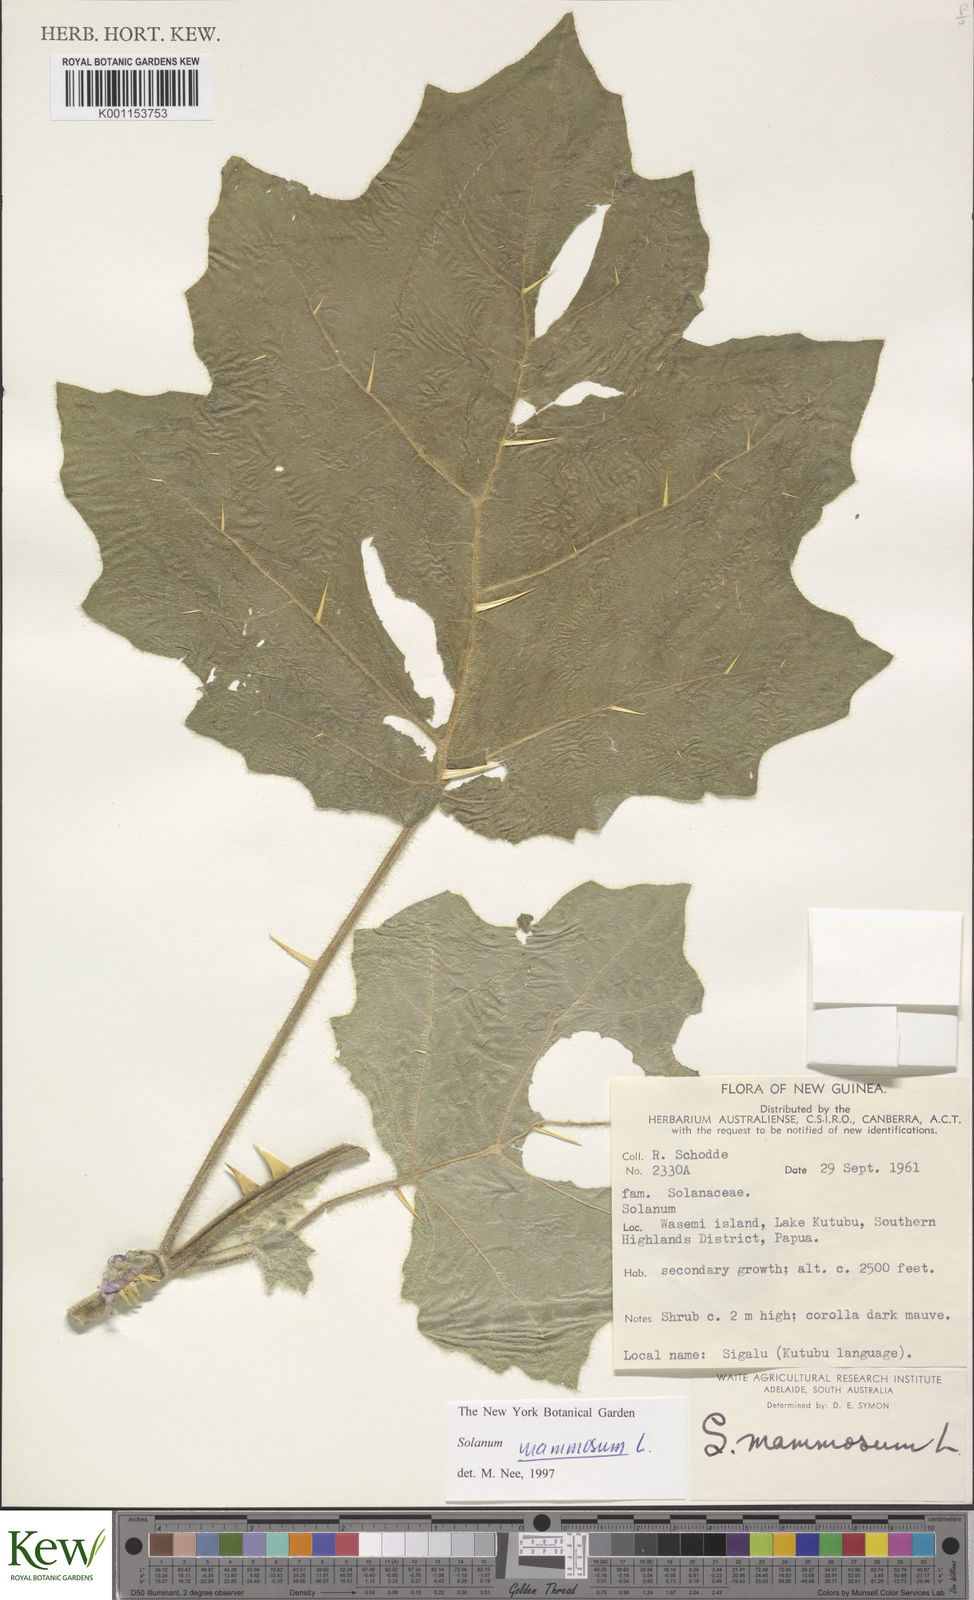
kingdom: Plantae
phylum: Tracheophyta
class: Magnoliopsida
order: Solanales
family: Solanaceae
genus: Solanum
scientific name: Solanum mammosum
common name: Nipple fruit
